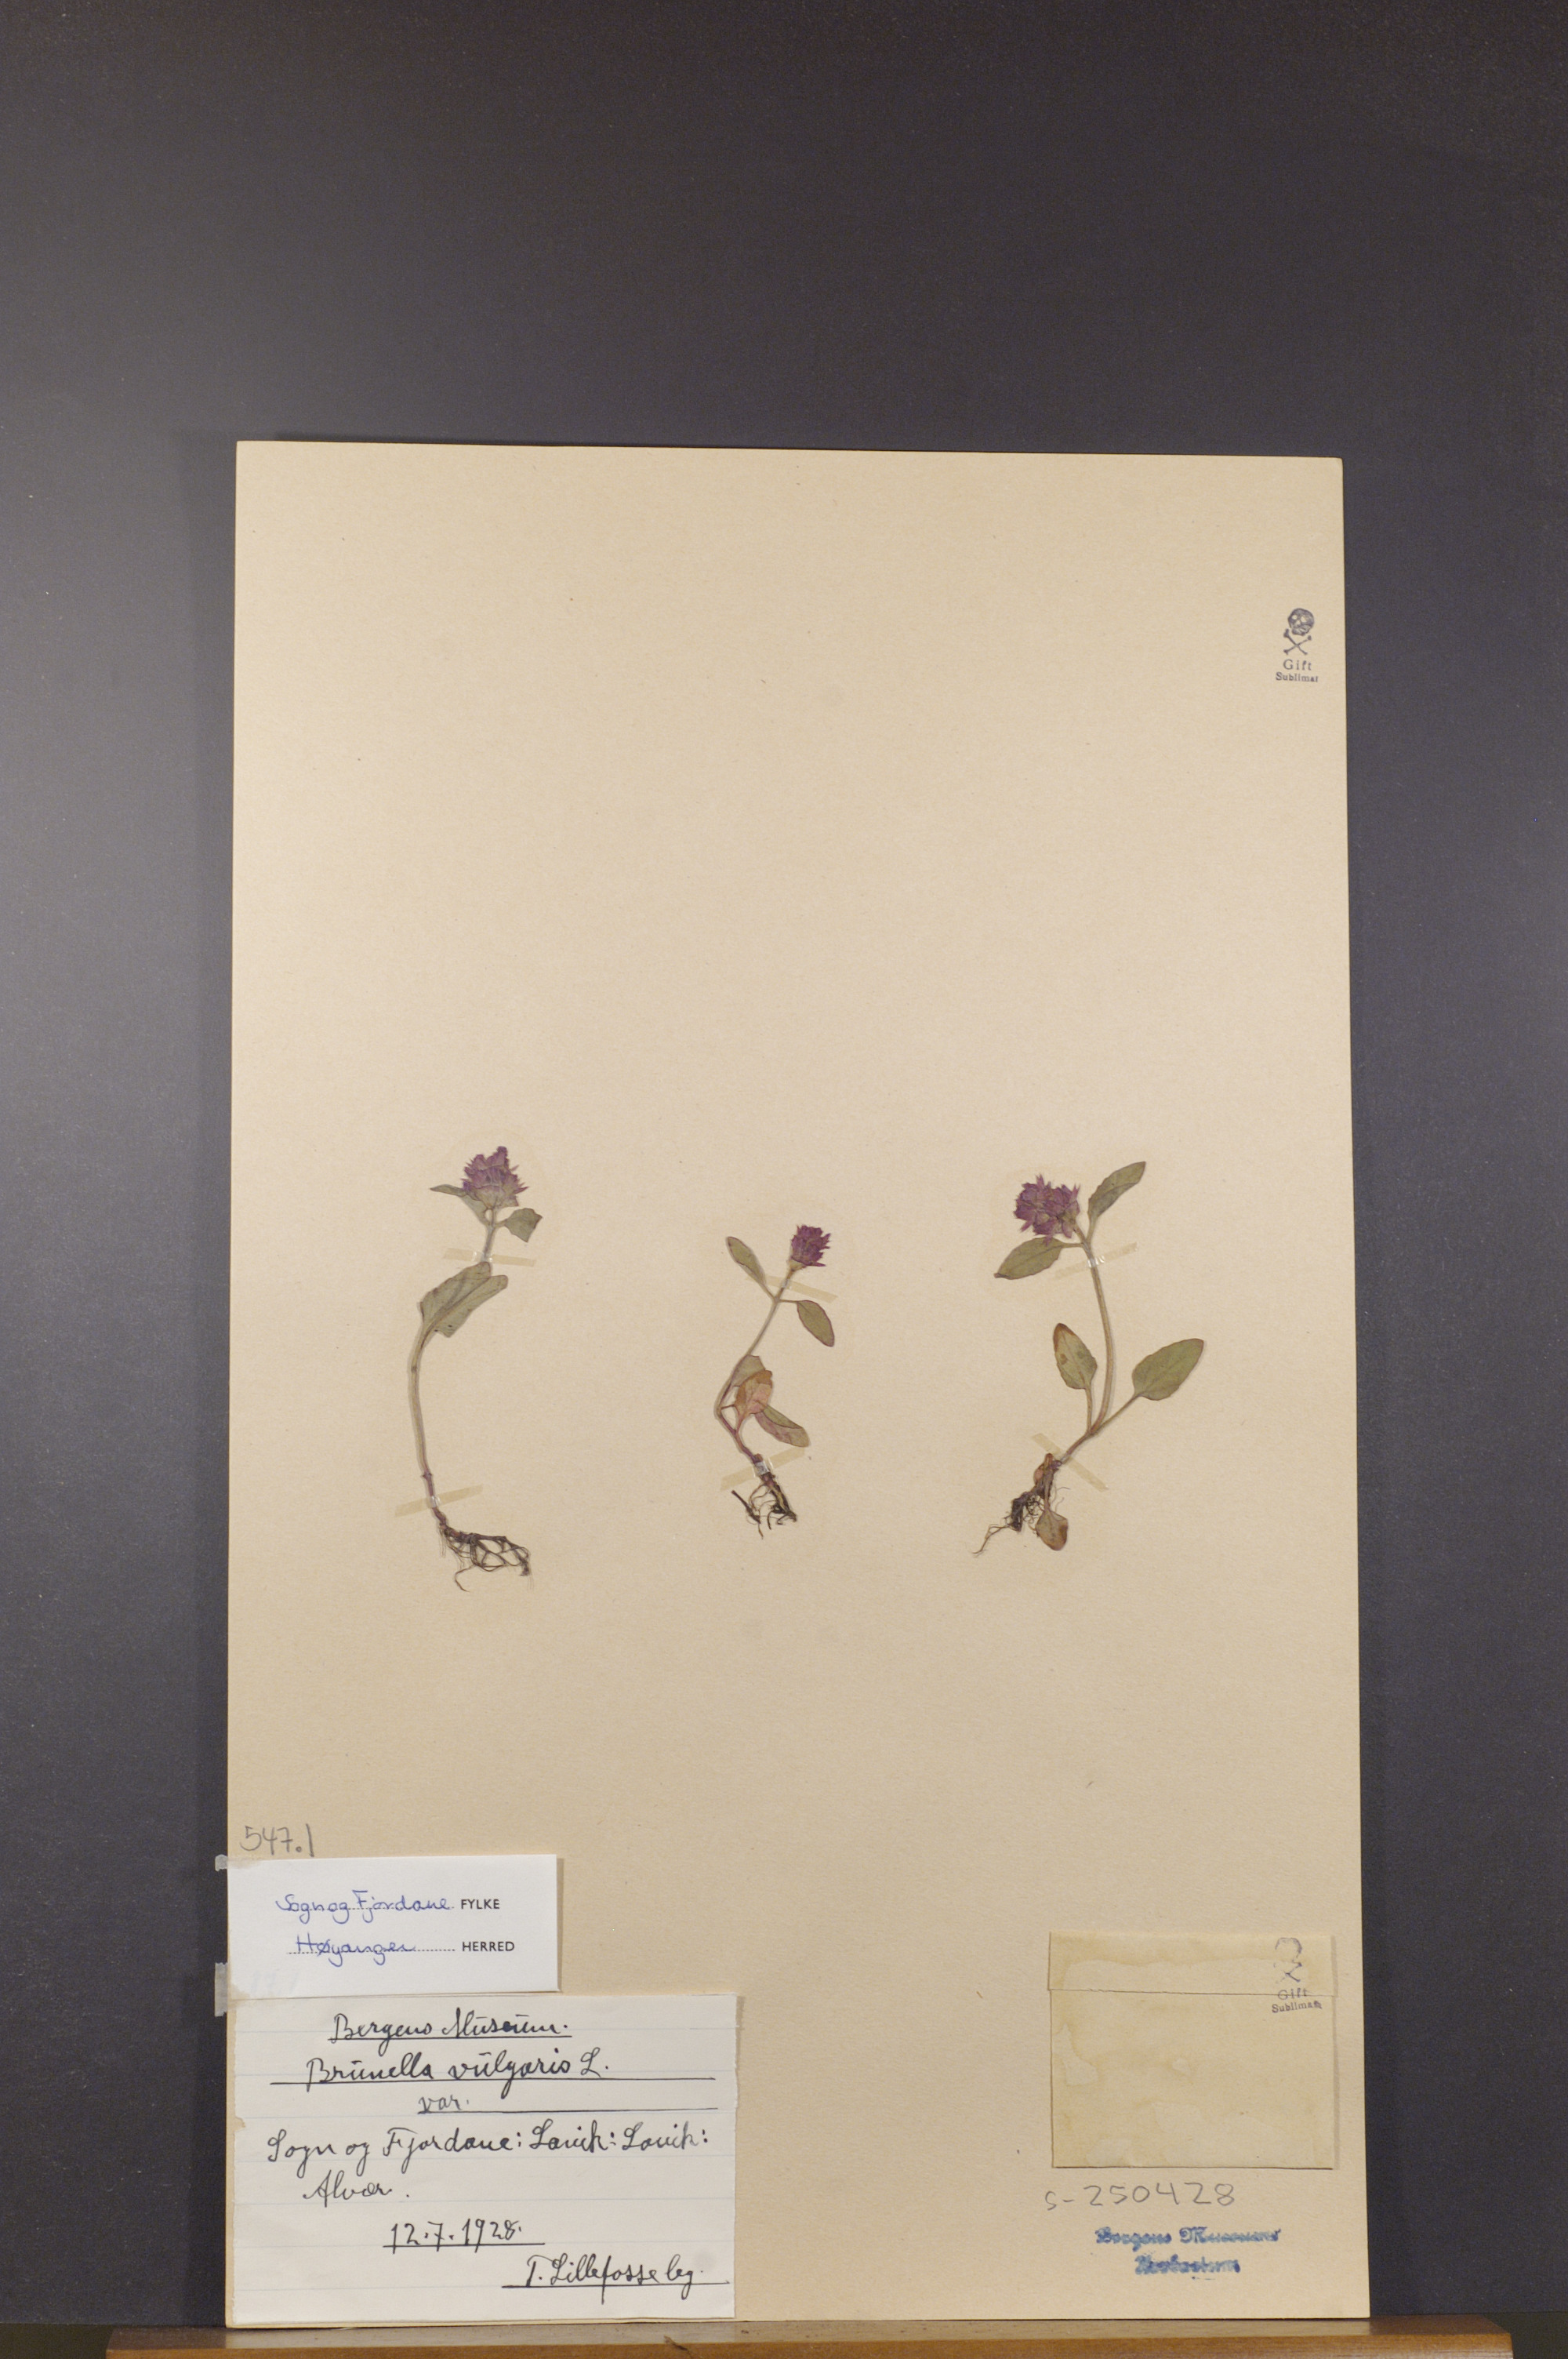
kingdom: Plantae
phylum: Tracheophyta
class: Magnoliopsida
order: Lamiales
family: Lamiaceae
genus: Prunella
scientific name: Prunella vulgaris
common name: Heal-all
